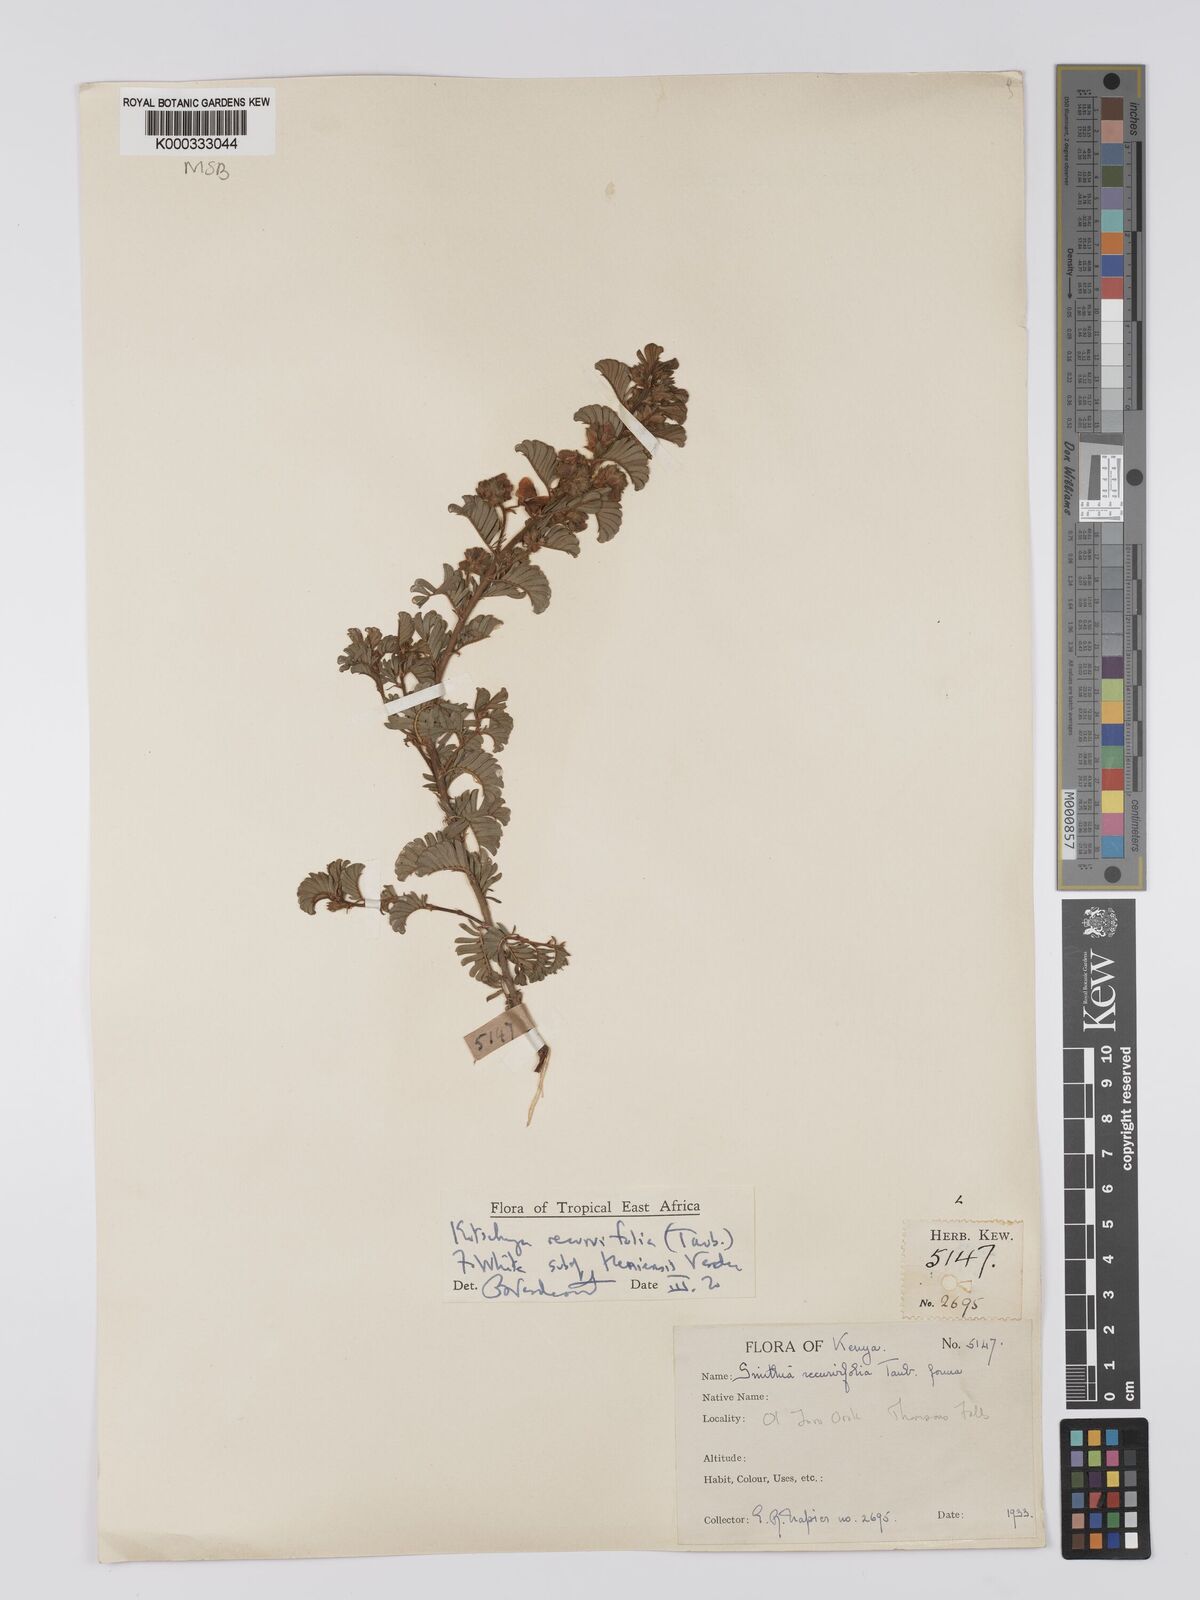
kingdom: Plantae
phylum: Tracheophyta
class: Magnoliopsida
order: Fabales
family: Fabaceae
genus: Kotschya
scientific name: Kotschya recurvifolia
